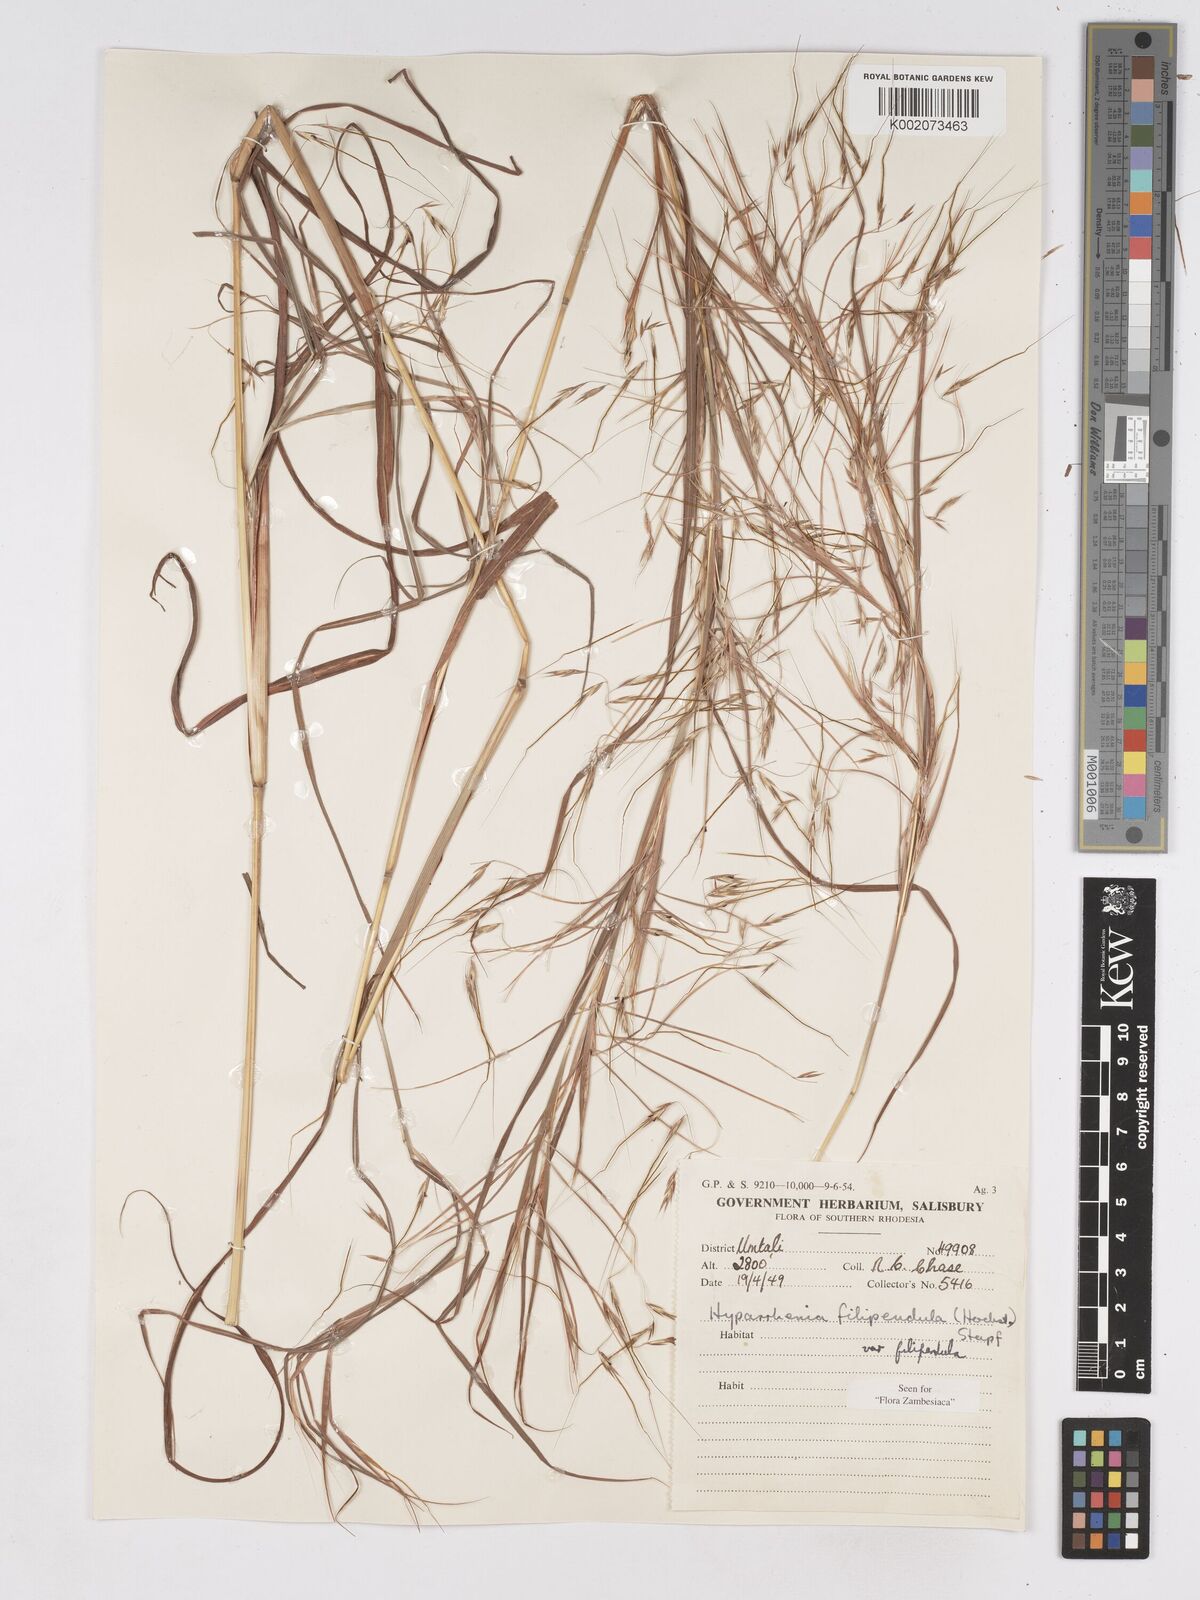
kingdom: Plantae
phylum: Tracheophyta
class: Liliopsida
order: Poales
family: Poaceae
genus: Hyparrhenia
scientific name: Hyparrhenia filipendula
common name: Tambookie grass
